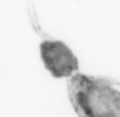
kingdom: Animalia
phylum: Arthropoda
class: Copepoda
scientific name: Copepoda
